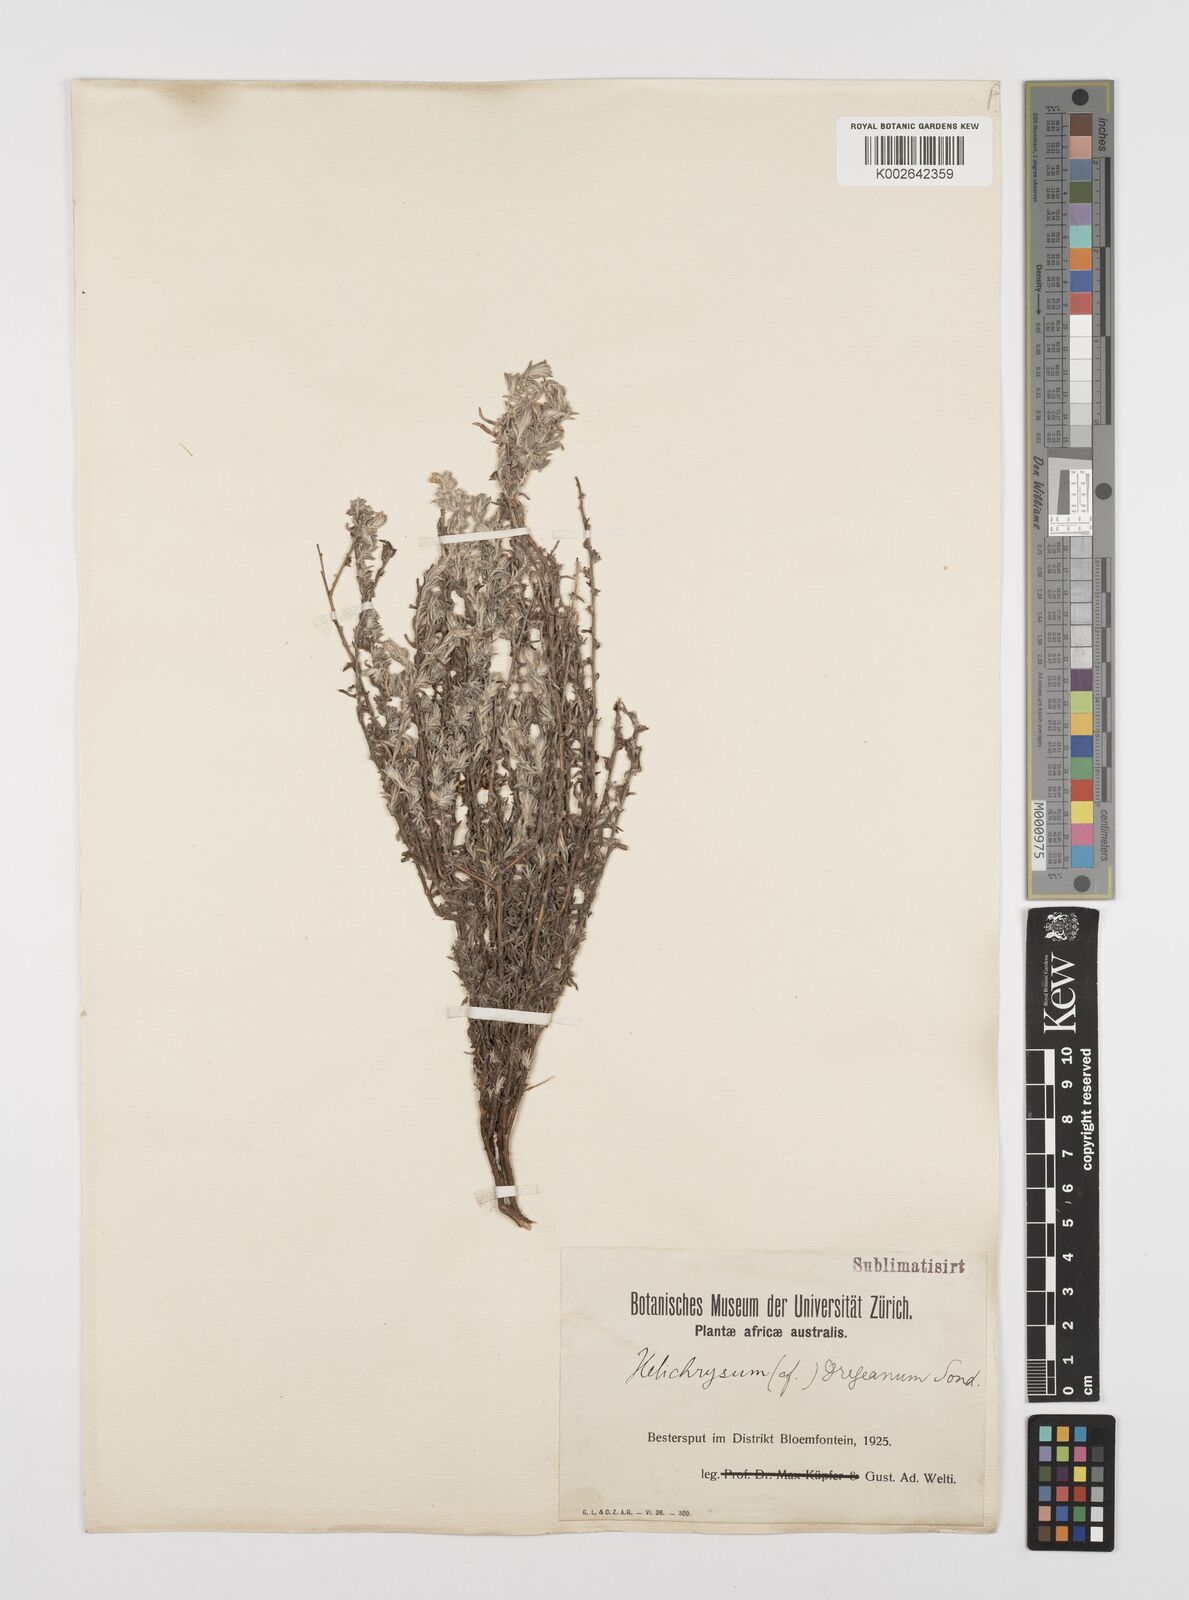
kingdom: Plantae
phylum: Tracheophyta
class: Magnoliopsida
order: Asterales
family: Asteraceae
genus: Helichrysum
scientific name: Helichrysum dregeanum
